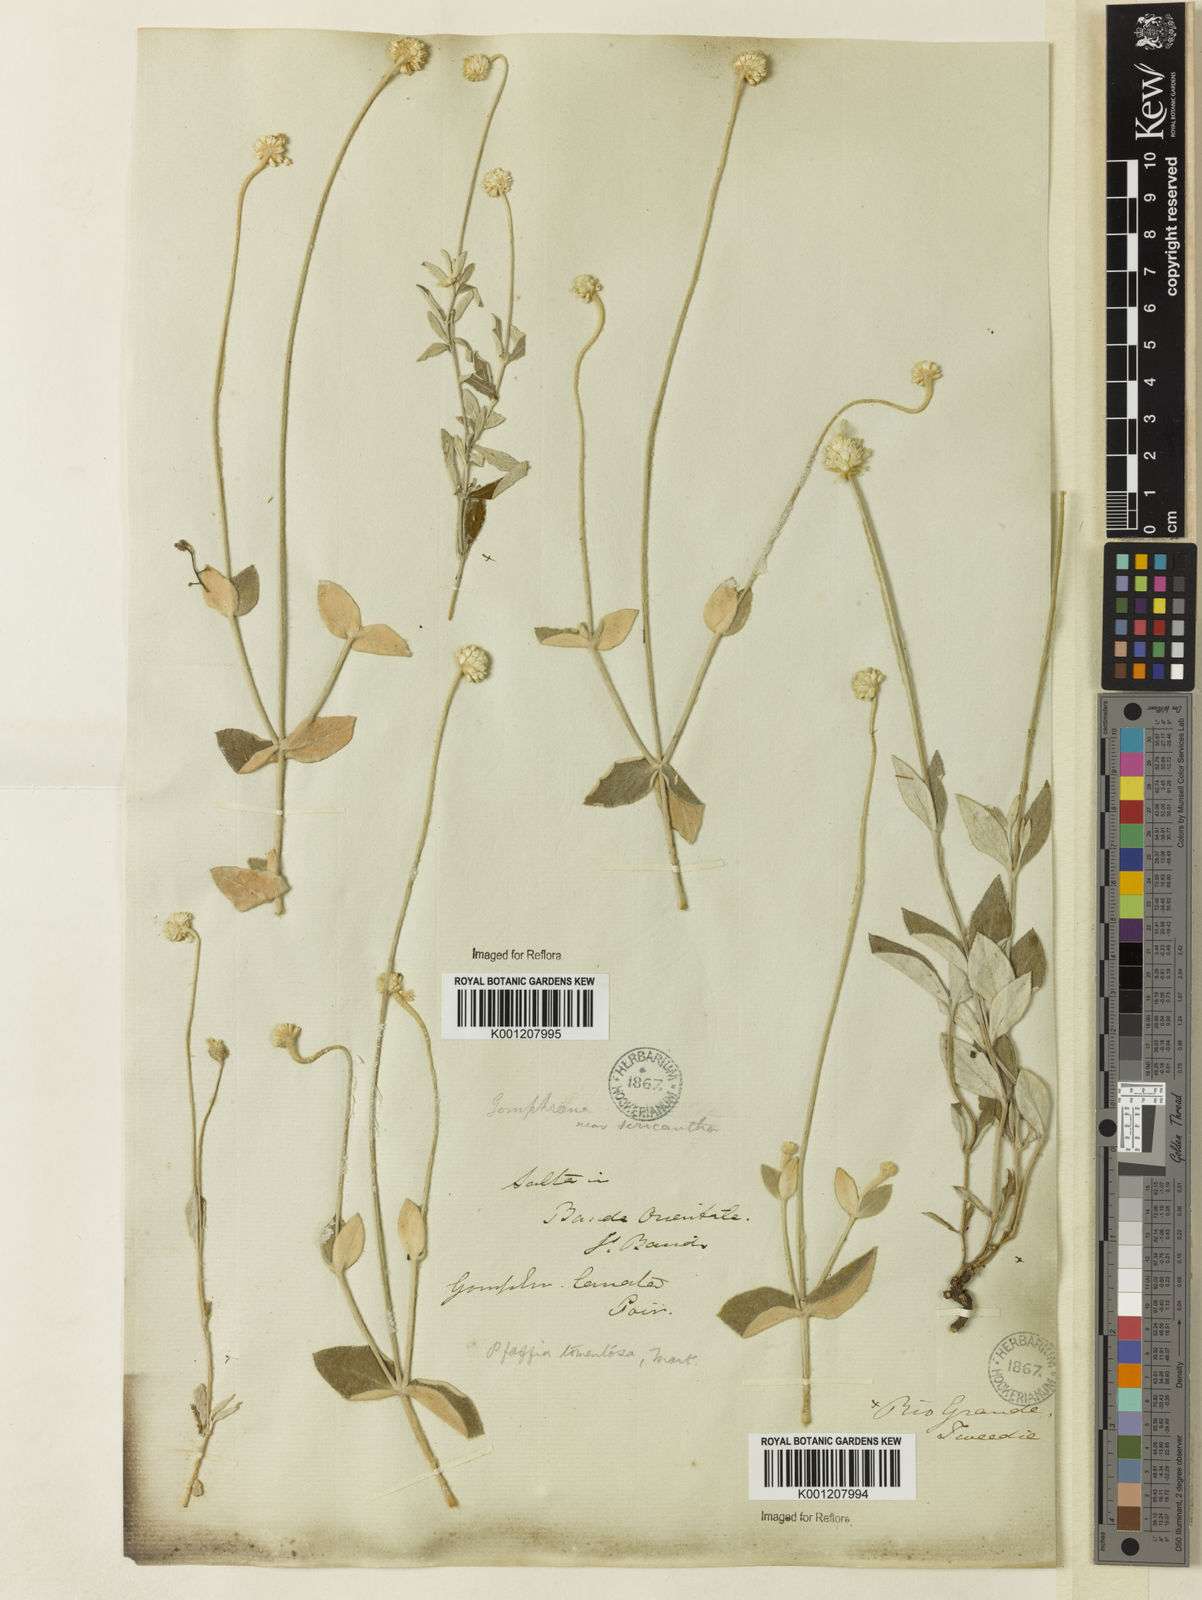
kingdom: Plantae
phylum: Tracheophyta
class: Magnoliopsida
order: Caryophyllales
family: Amaranthaceae
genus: Pfaffia
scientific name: Pfaffia gnaphalioides
